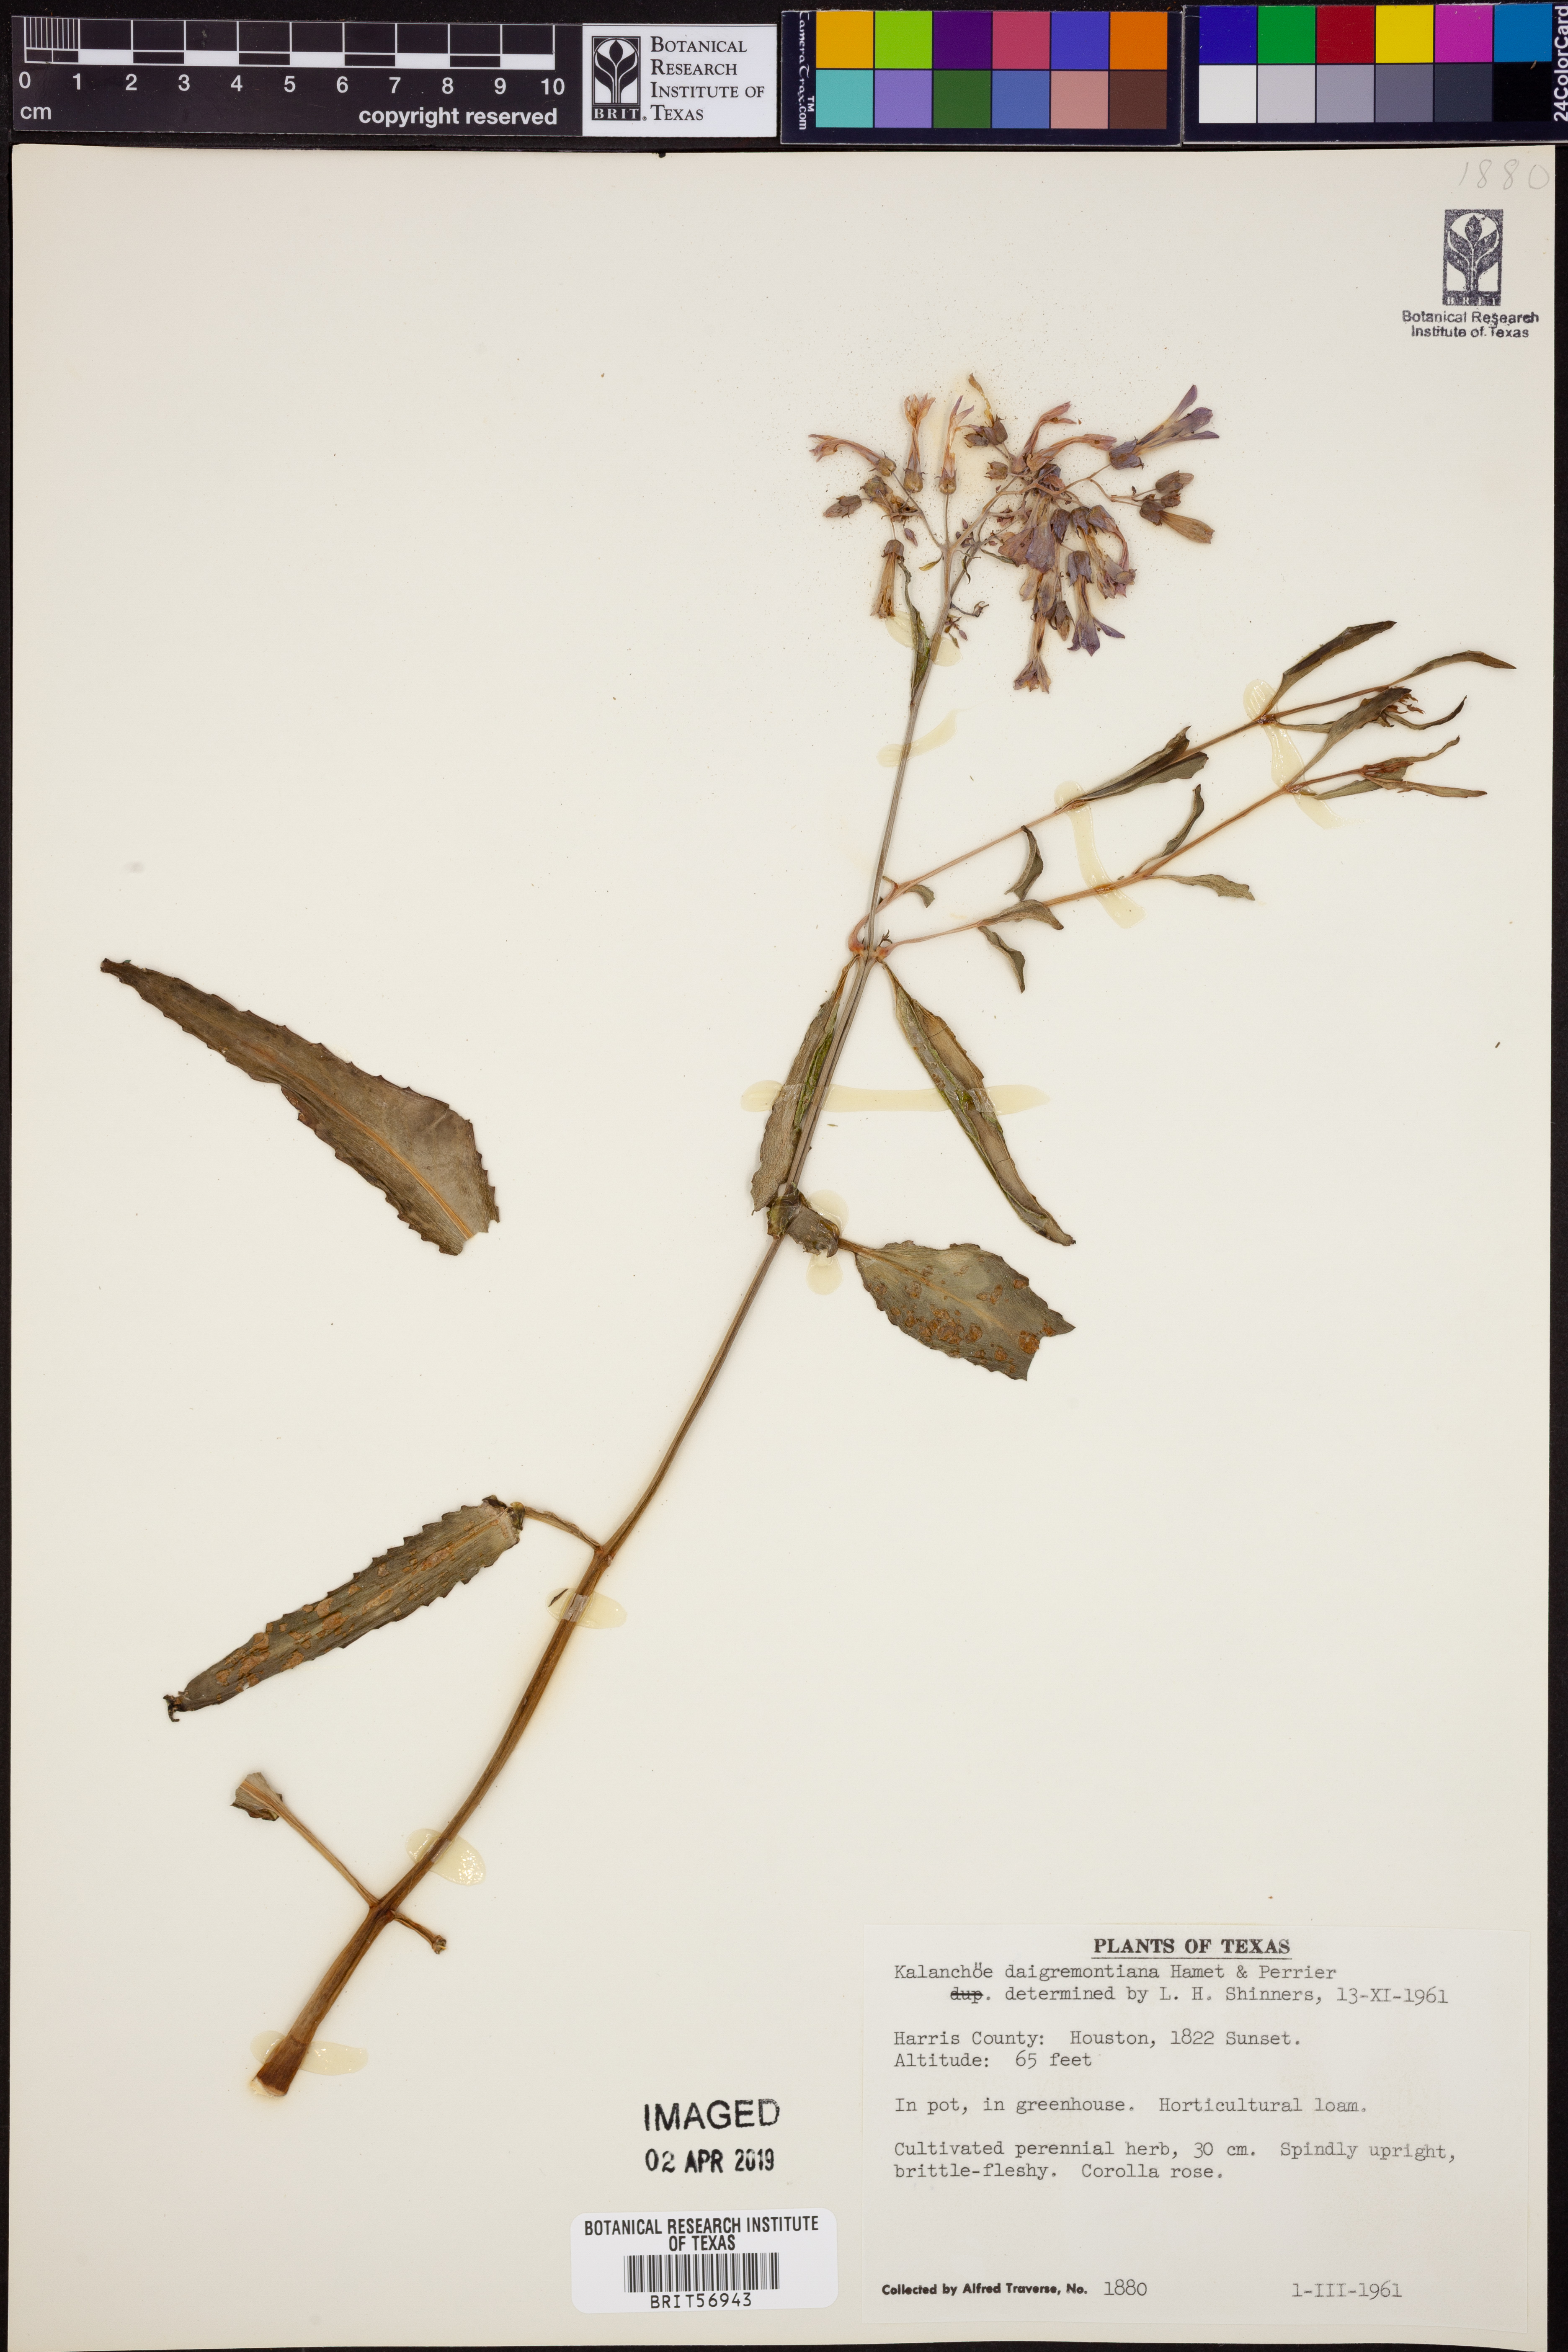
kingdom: Plantae
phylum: Tracheophyta
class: Magnoliopsida
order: Saxifragales
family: Crassulaceae
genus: Kalanchoe
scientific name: Kalanchoe daigremontiana
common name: Devil's backbone
